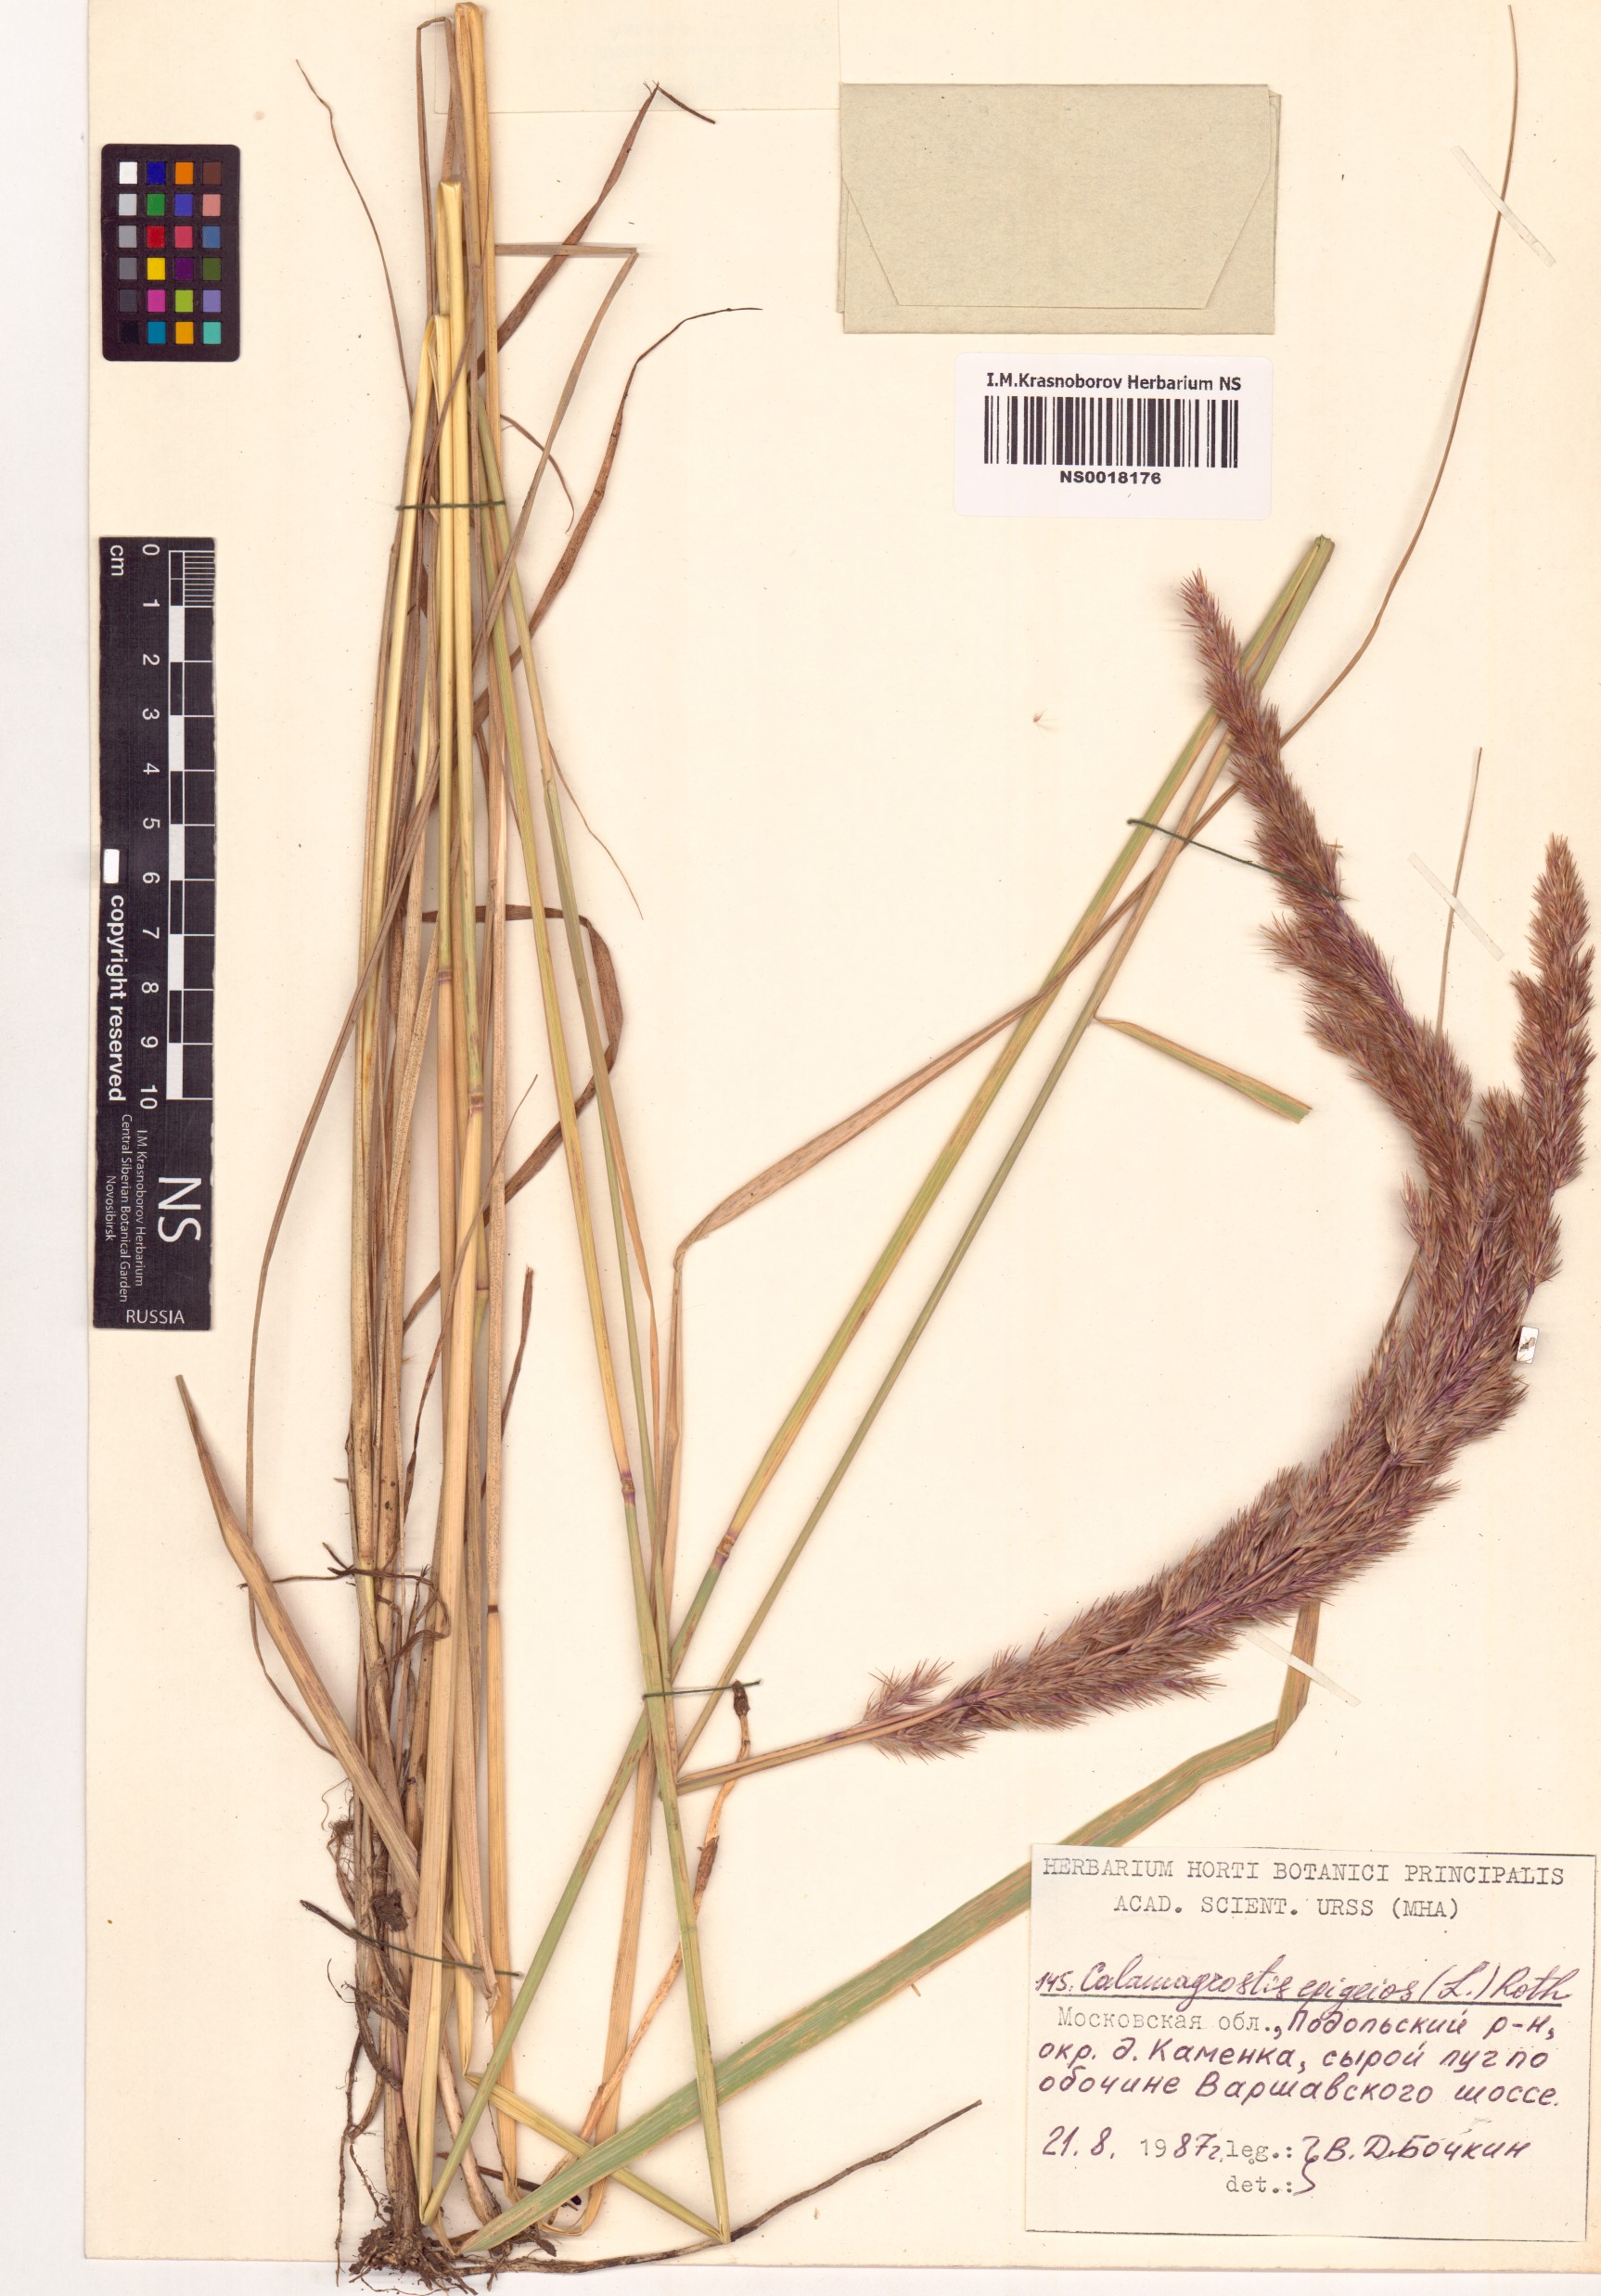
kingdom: Plantae
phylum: Tracheophyta
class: Liliopsida
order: Poales
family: Poaceae
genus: Calamagrostis
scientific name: Calamagrostis epigejos
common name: Wood small-reed
